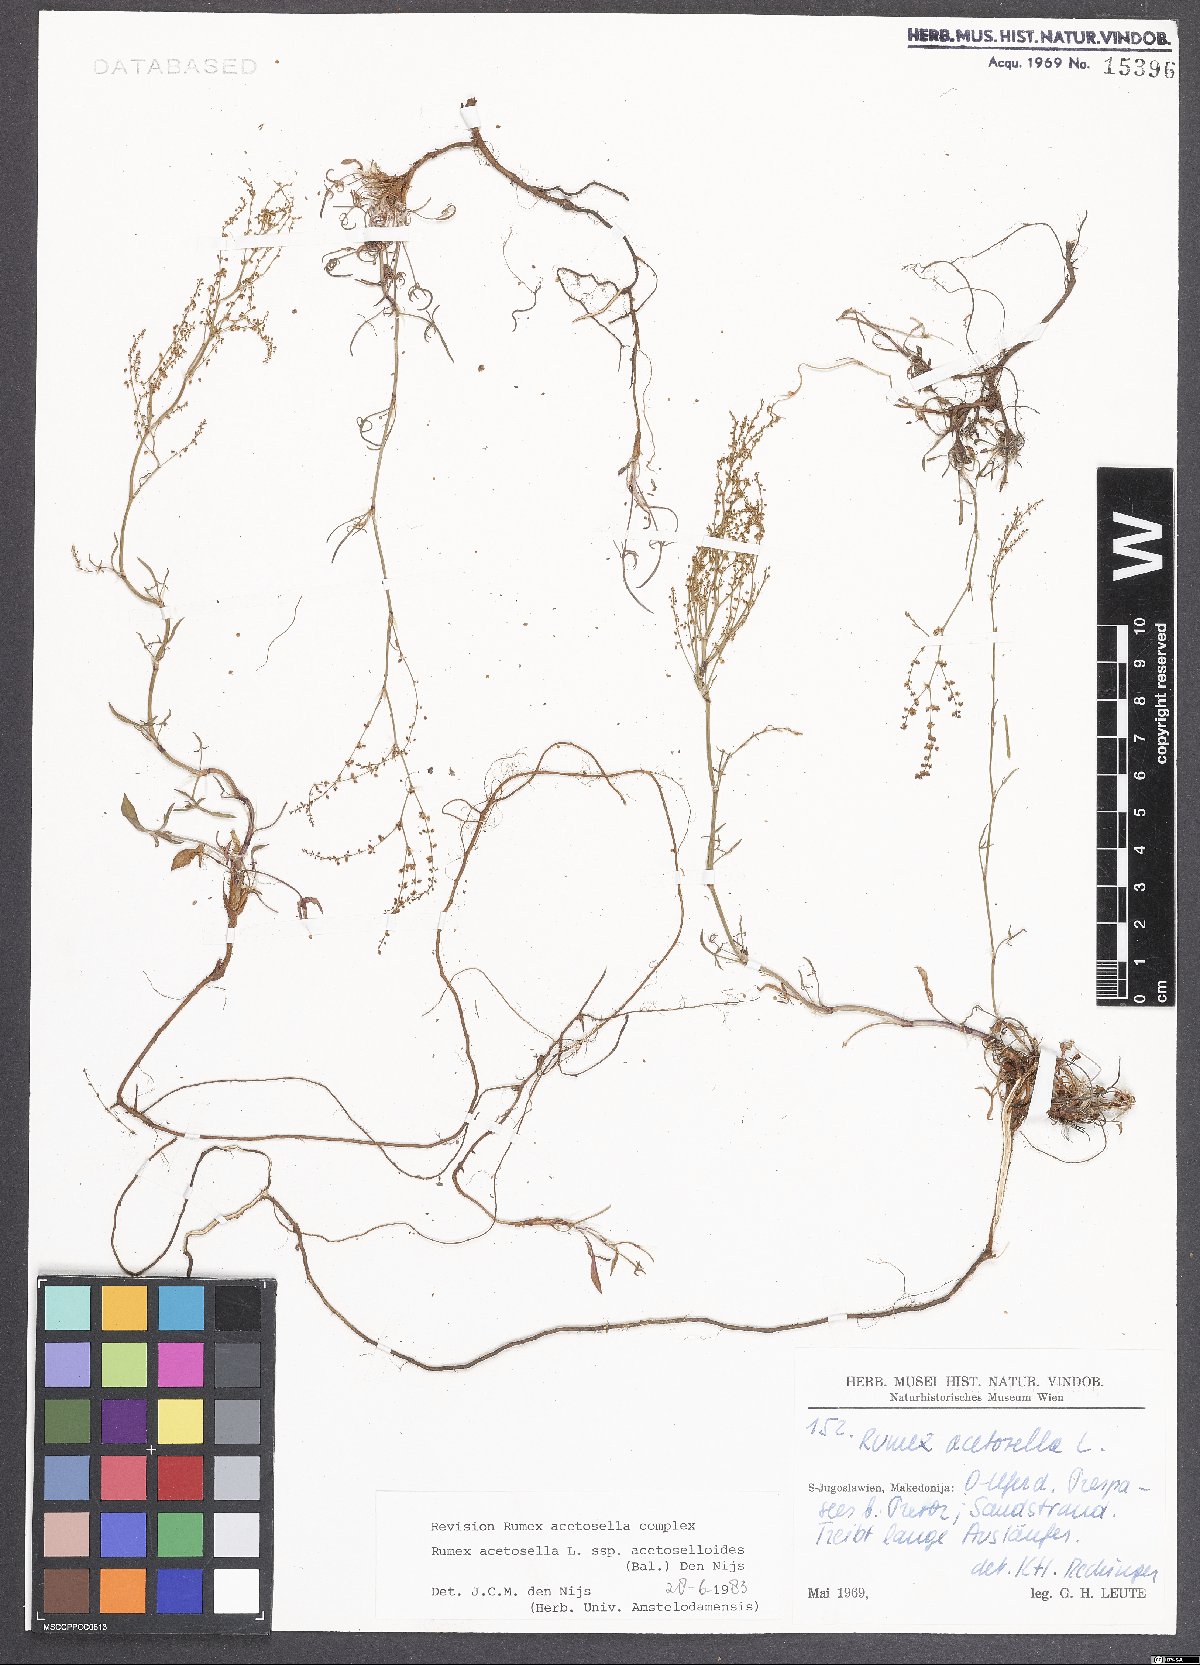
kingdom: Plantae
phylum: Tracheophyta
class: Magnoliopsida
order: Caryophyllales
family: Polygonaceae
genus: Rumex
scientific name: Rumex acetosella
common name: Common sheep sorrel
